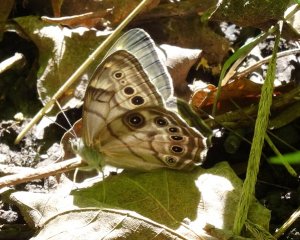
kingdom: Animalia
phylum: Arthropoda
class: Insecta
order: Lepidoptera
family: Nymphalidae
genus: Lethe
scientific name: Lethe anthedon
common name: Northern Pearly-Eye
